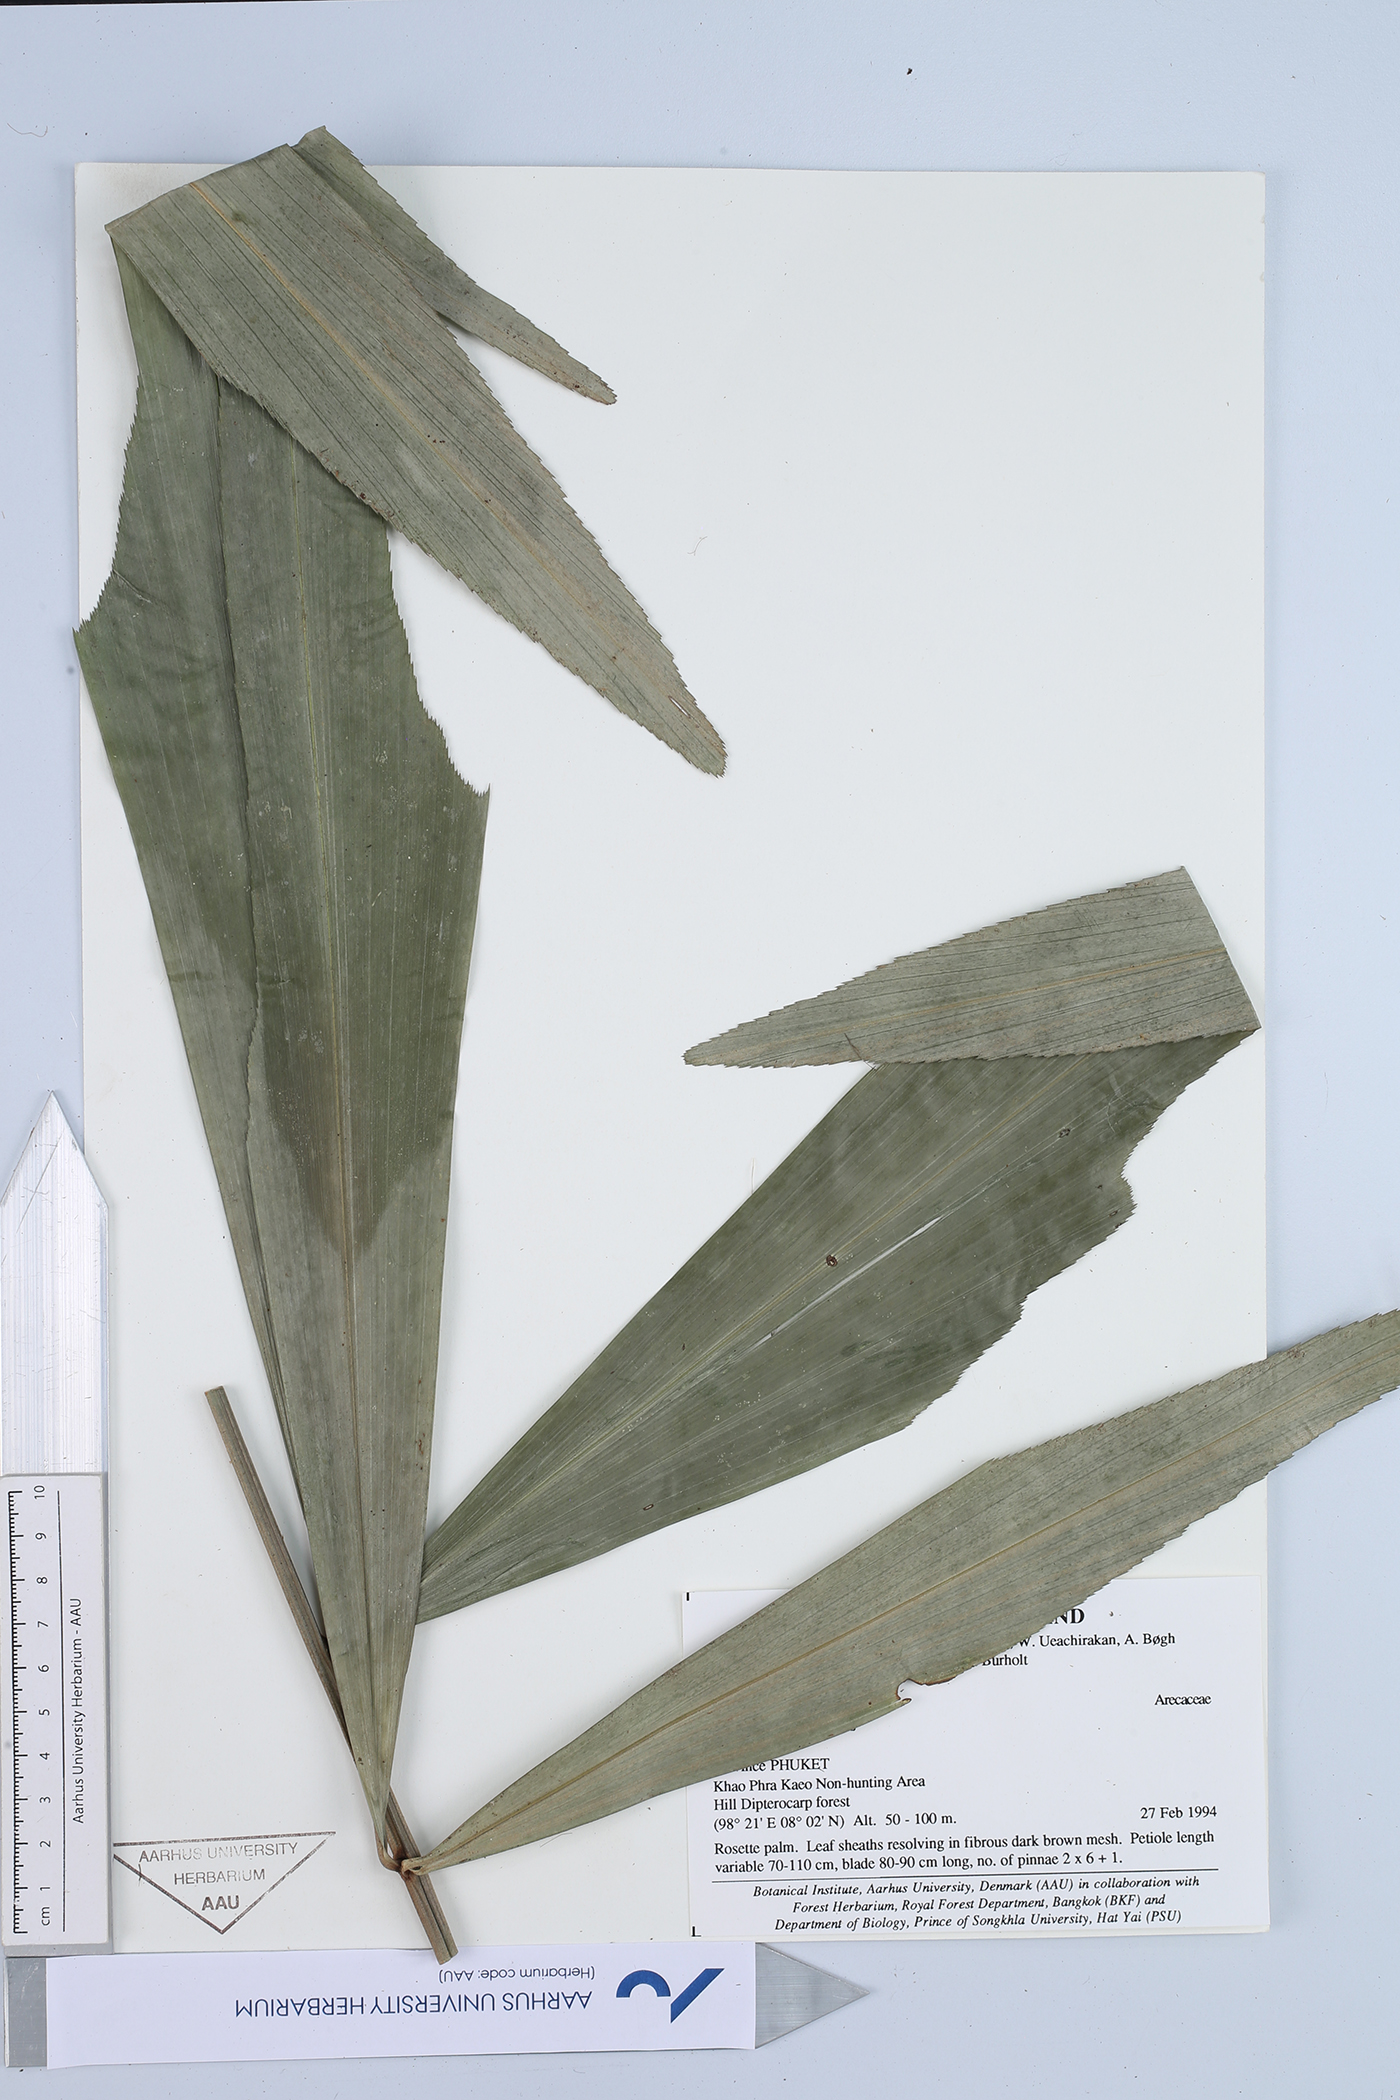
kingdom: Plantae
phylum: Tracheophyta
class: Liliopsida
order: Arecales
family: Arecaceae
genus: Wallichia
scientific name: Wallichia marianniae
